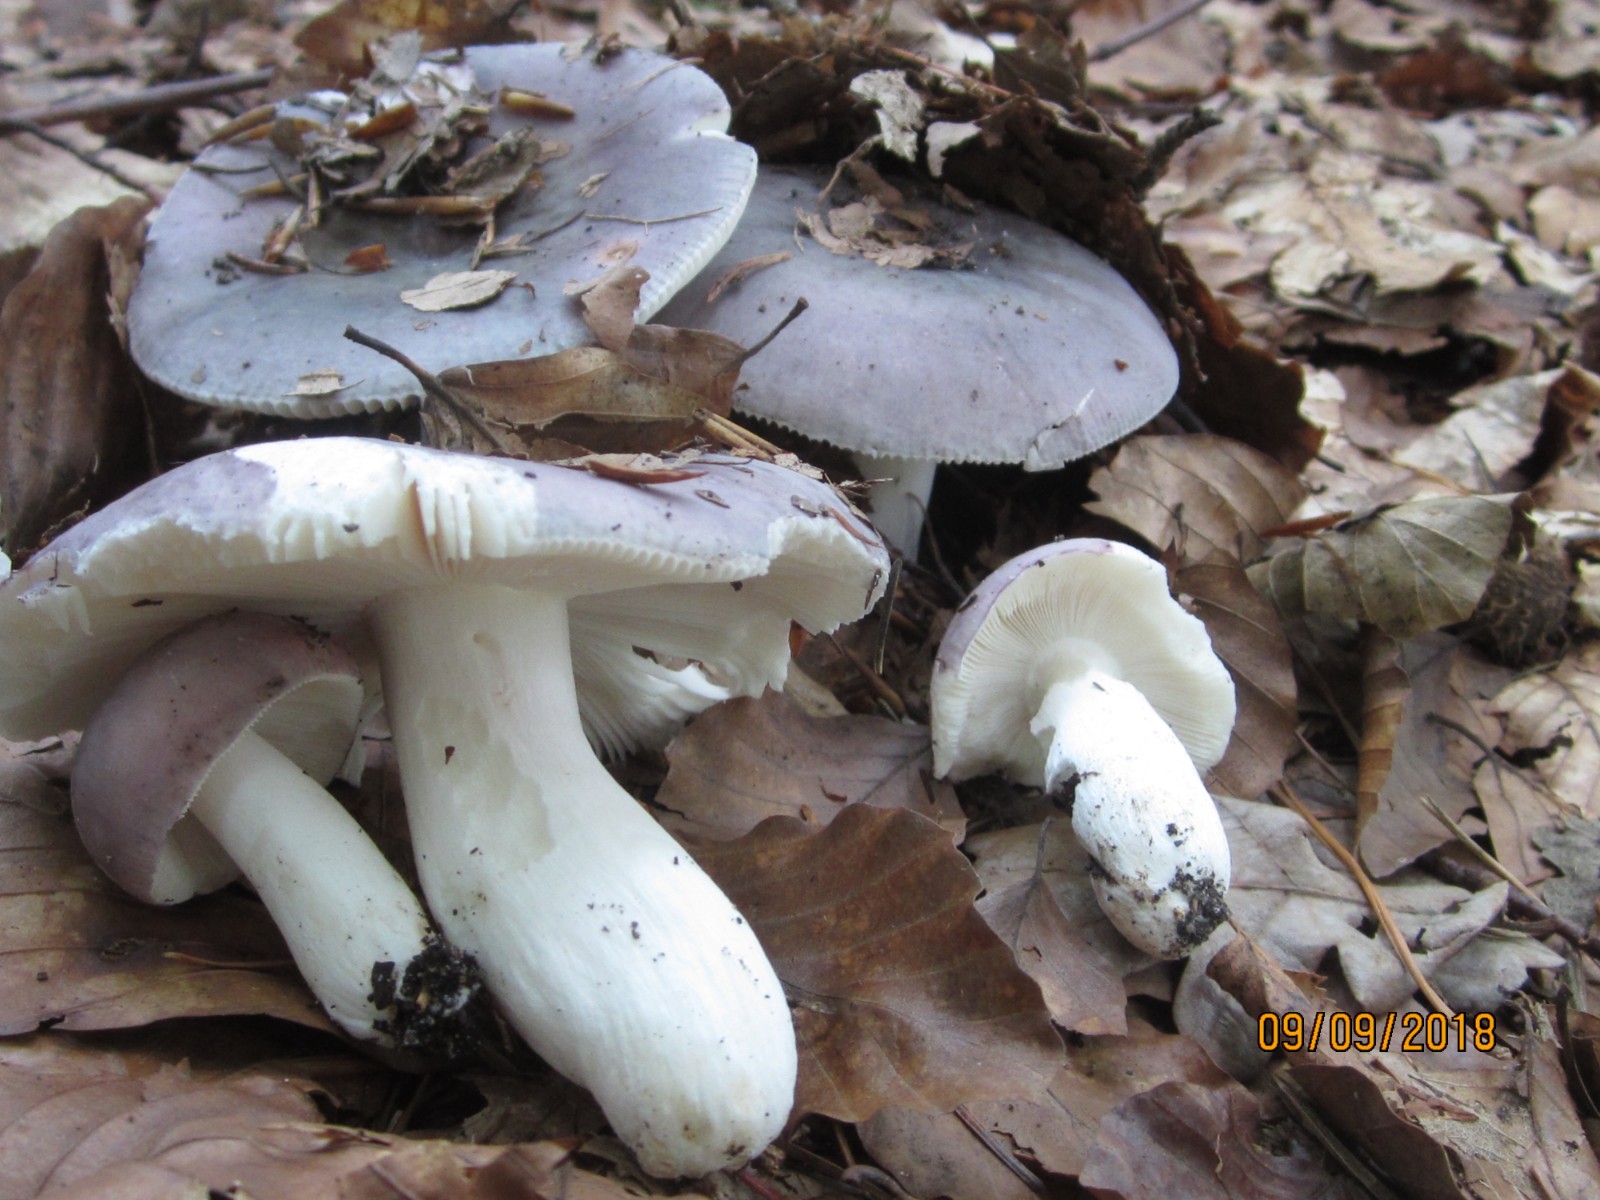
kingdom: Fungi
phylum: Basidiomycota
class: Agaricomycetes
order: Russulales
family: Russulaceae
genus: Russula
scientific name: Russula ionochlora
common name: violetgrøn skørhat
